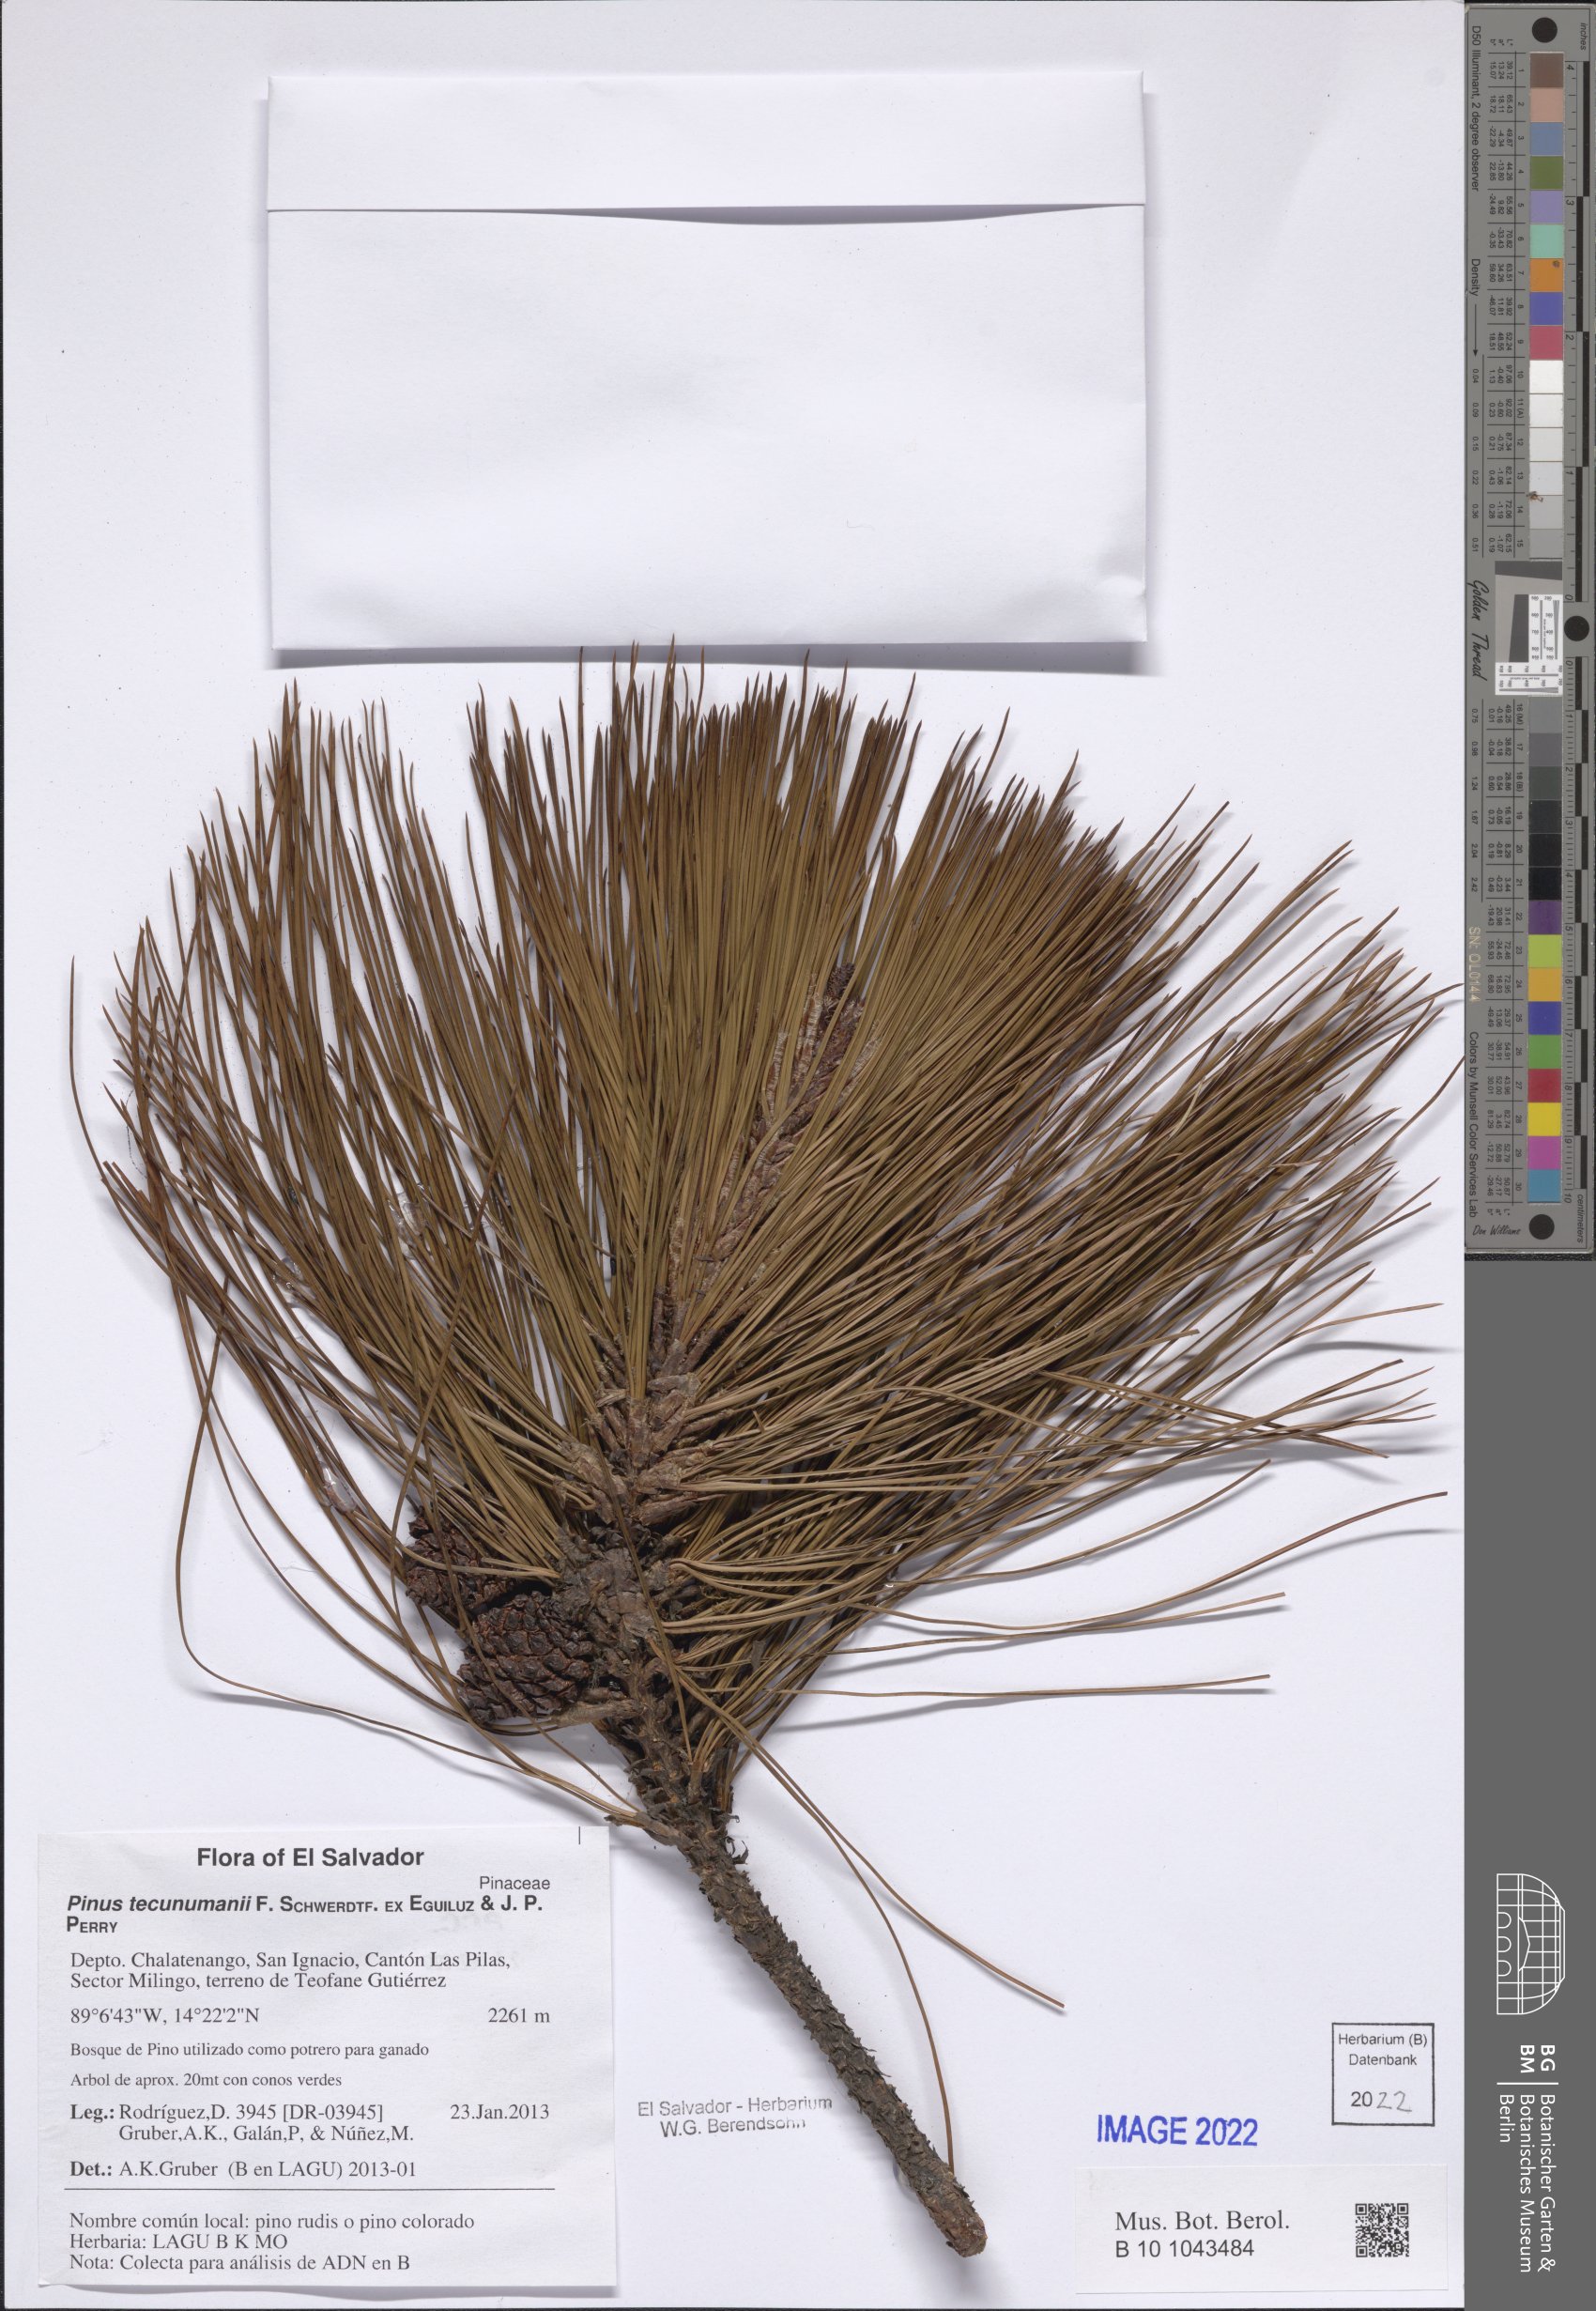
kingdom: Plantae
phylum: Tracheophyta
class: Pinopsida
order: Pinales
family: Pinaceae
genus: Pinus
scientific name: Pinus tecunumanii
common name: Schwerdtfeger's pine
